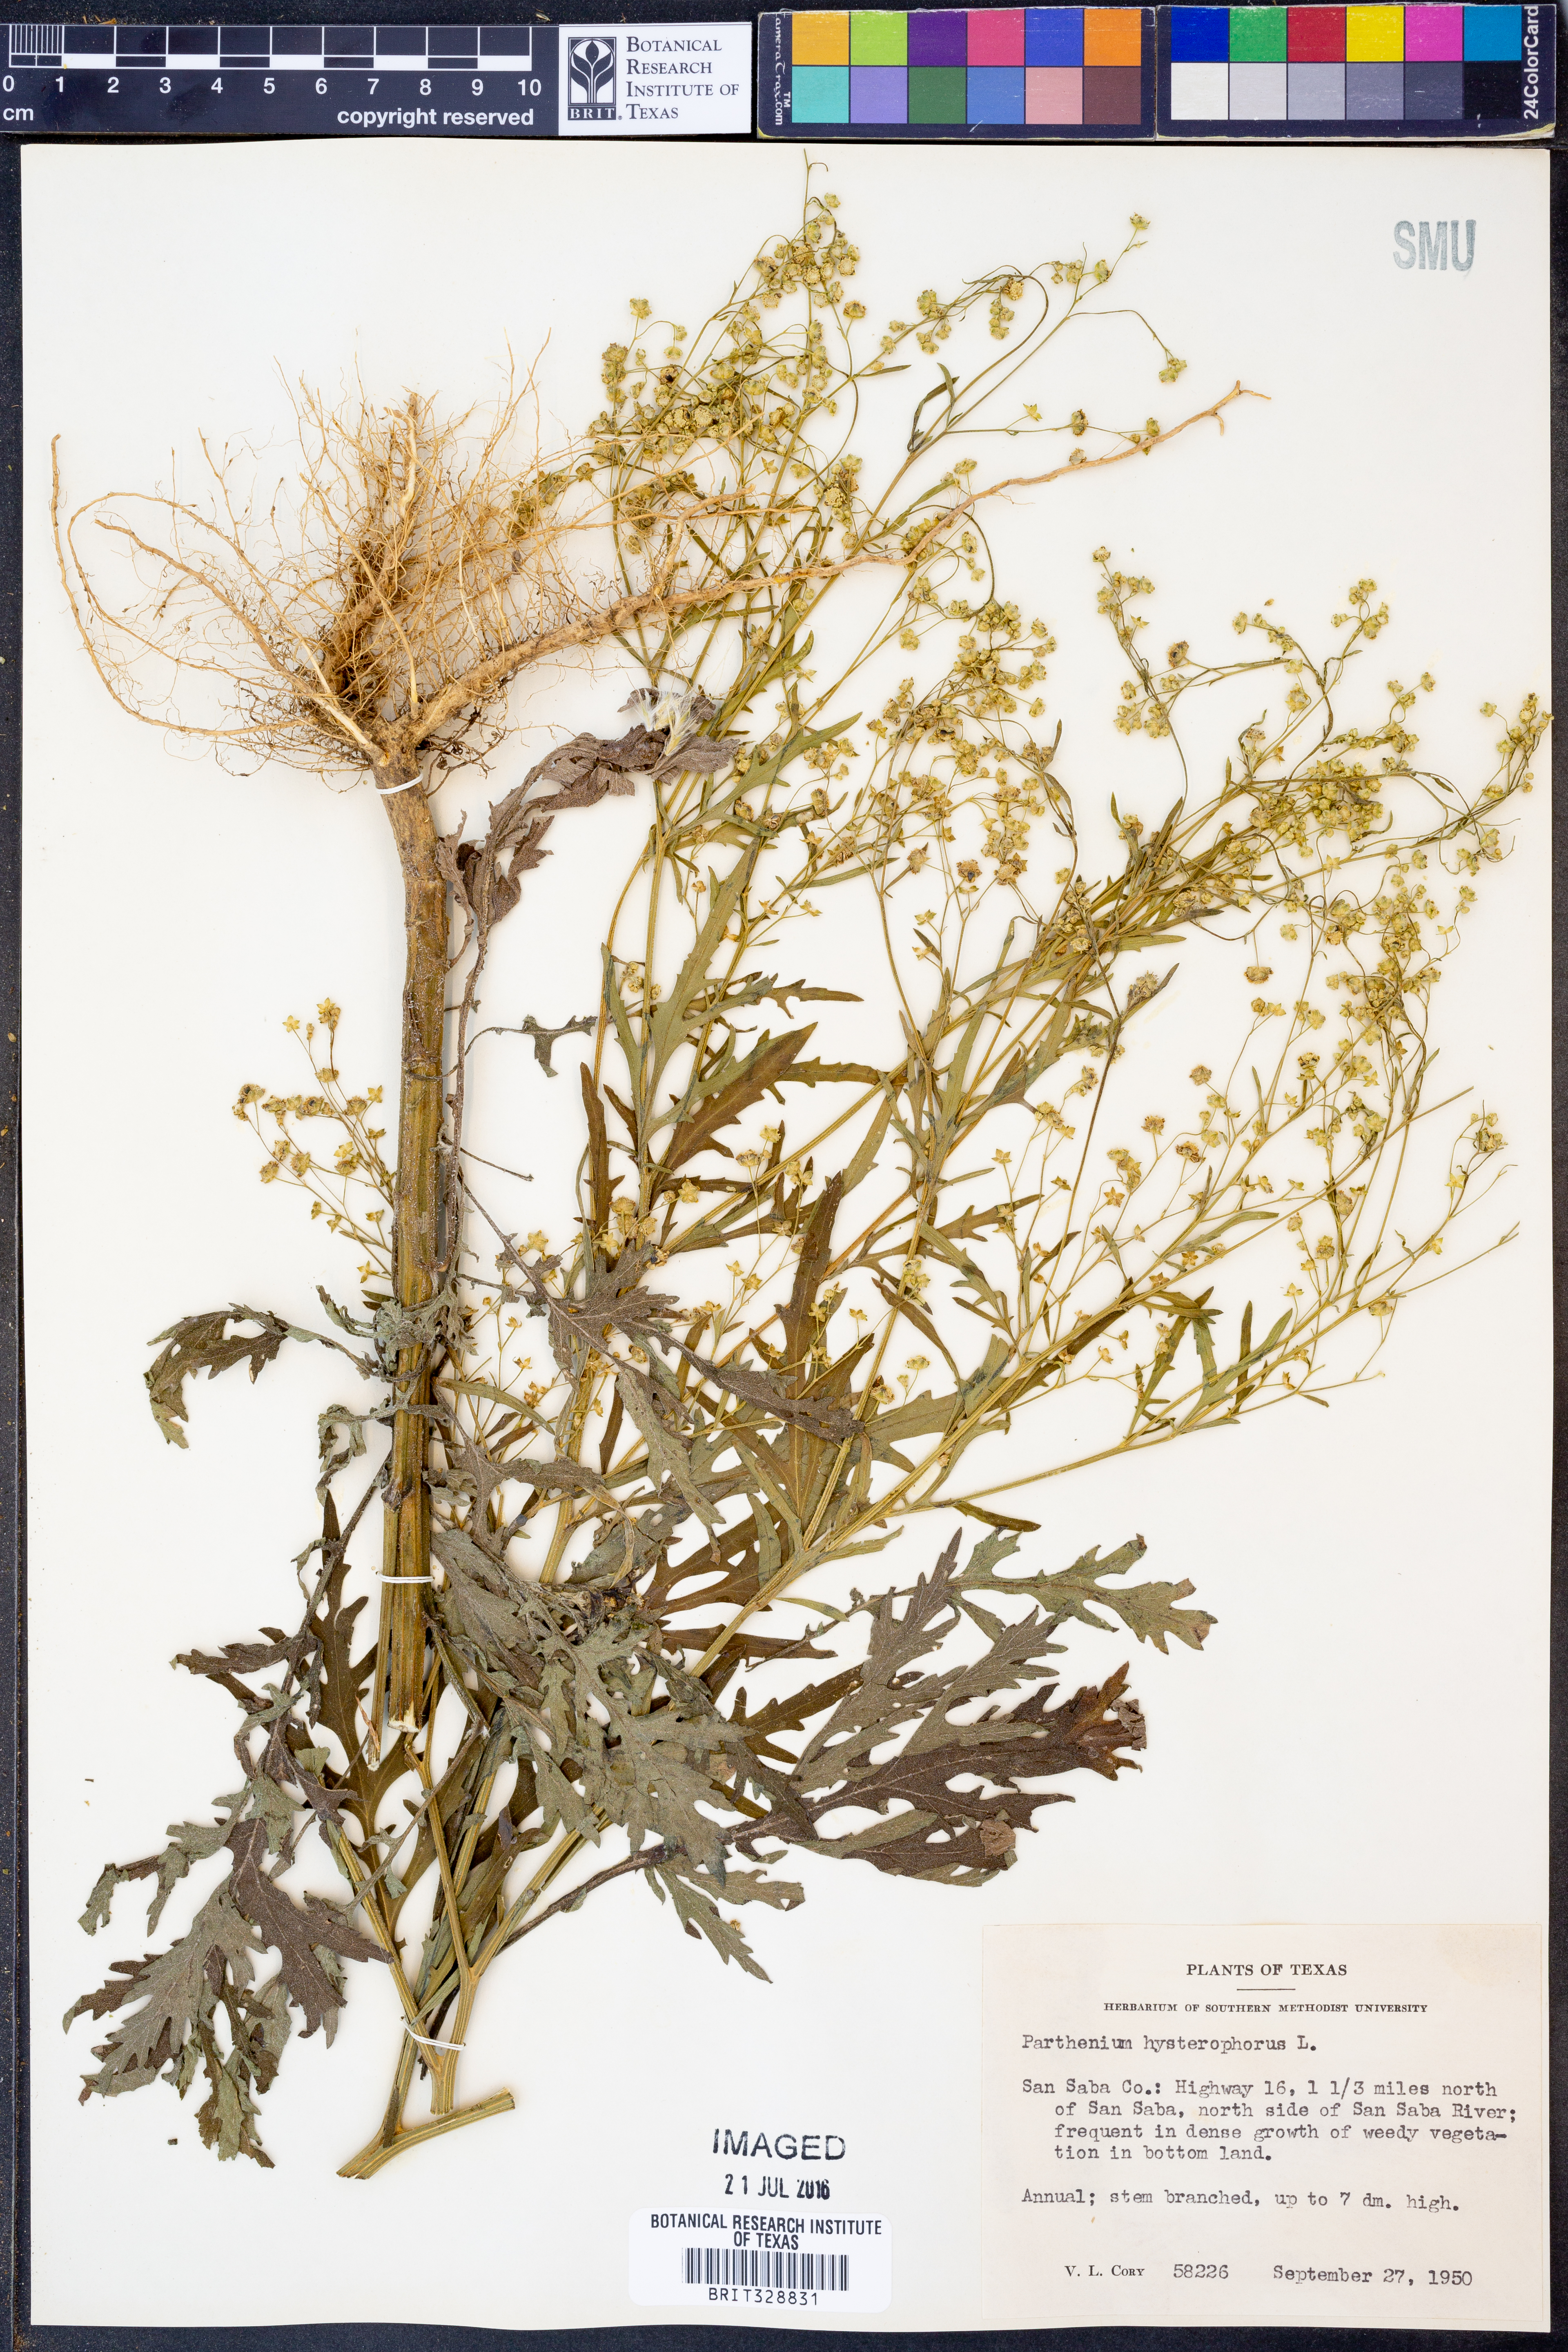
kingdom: Plantae
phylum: Tracheophyta
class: Magnoliopsida
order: Asterales
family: Asteraceae
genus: Parthenium
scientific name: Parthenium hysterophorus
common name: Santa maria feverfew
